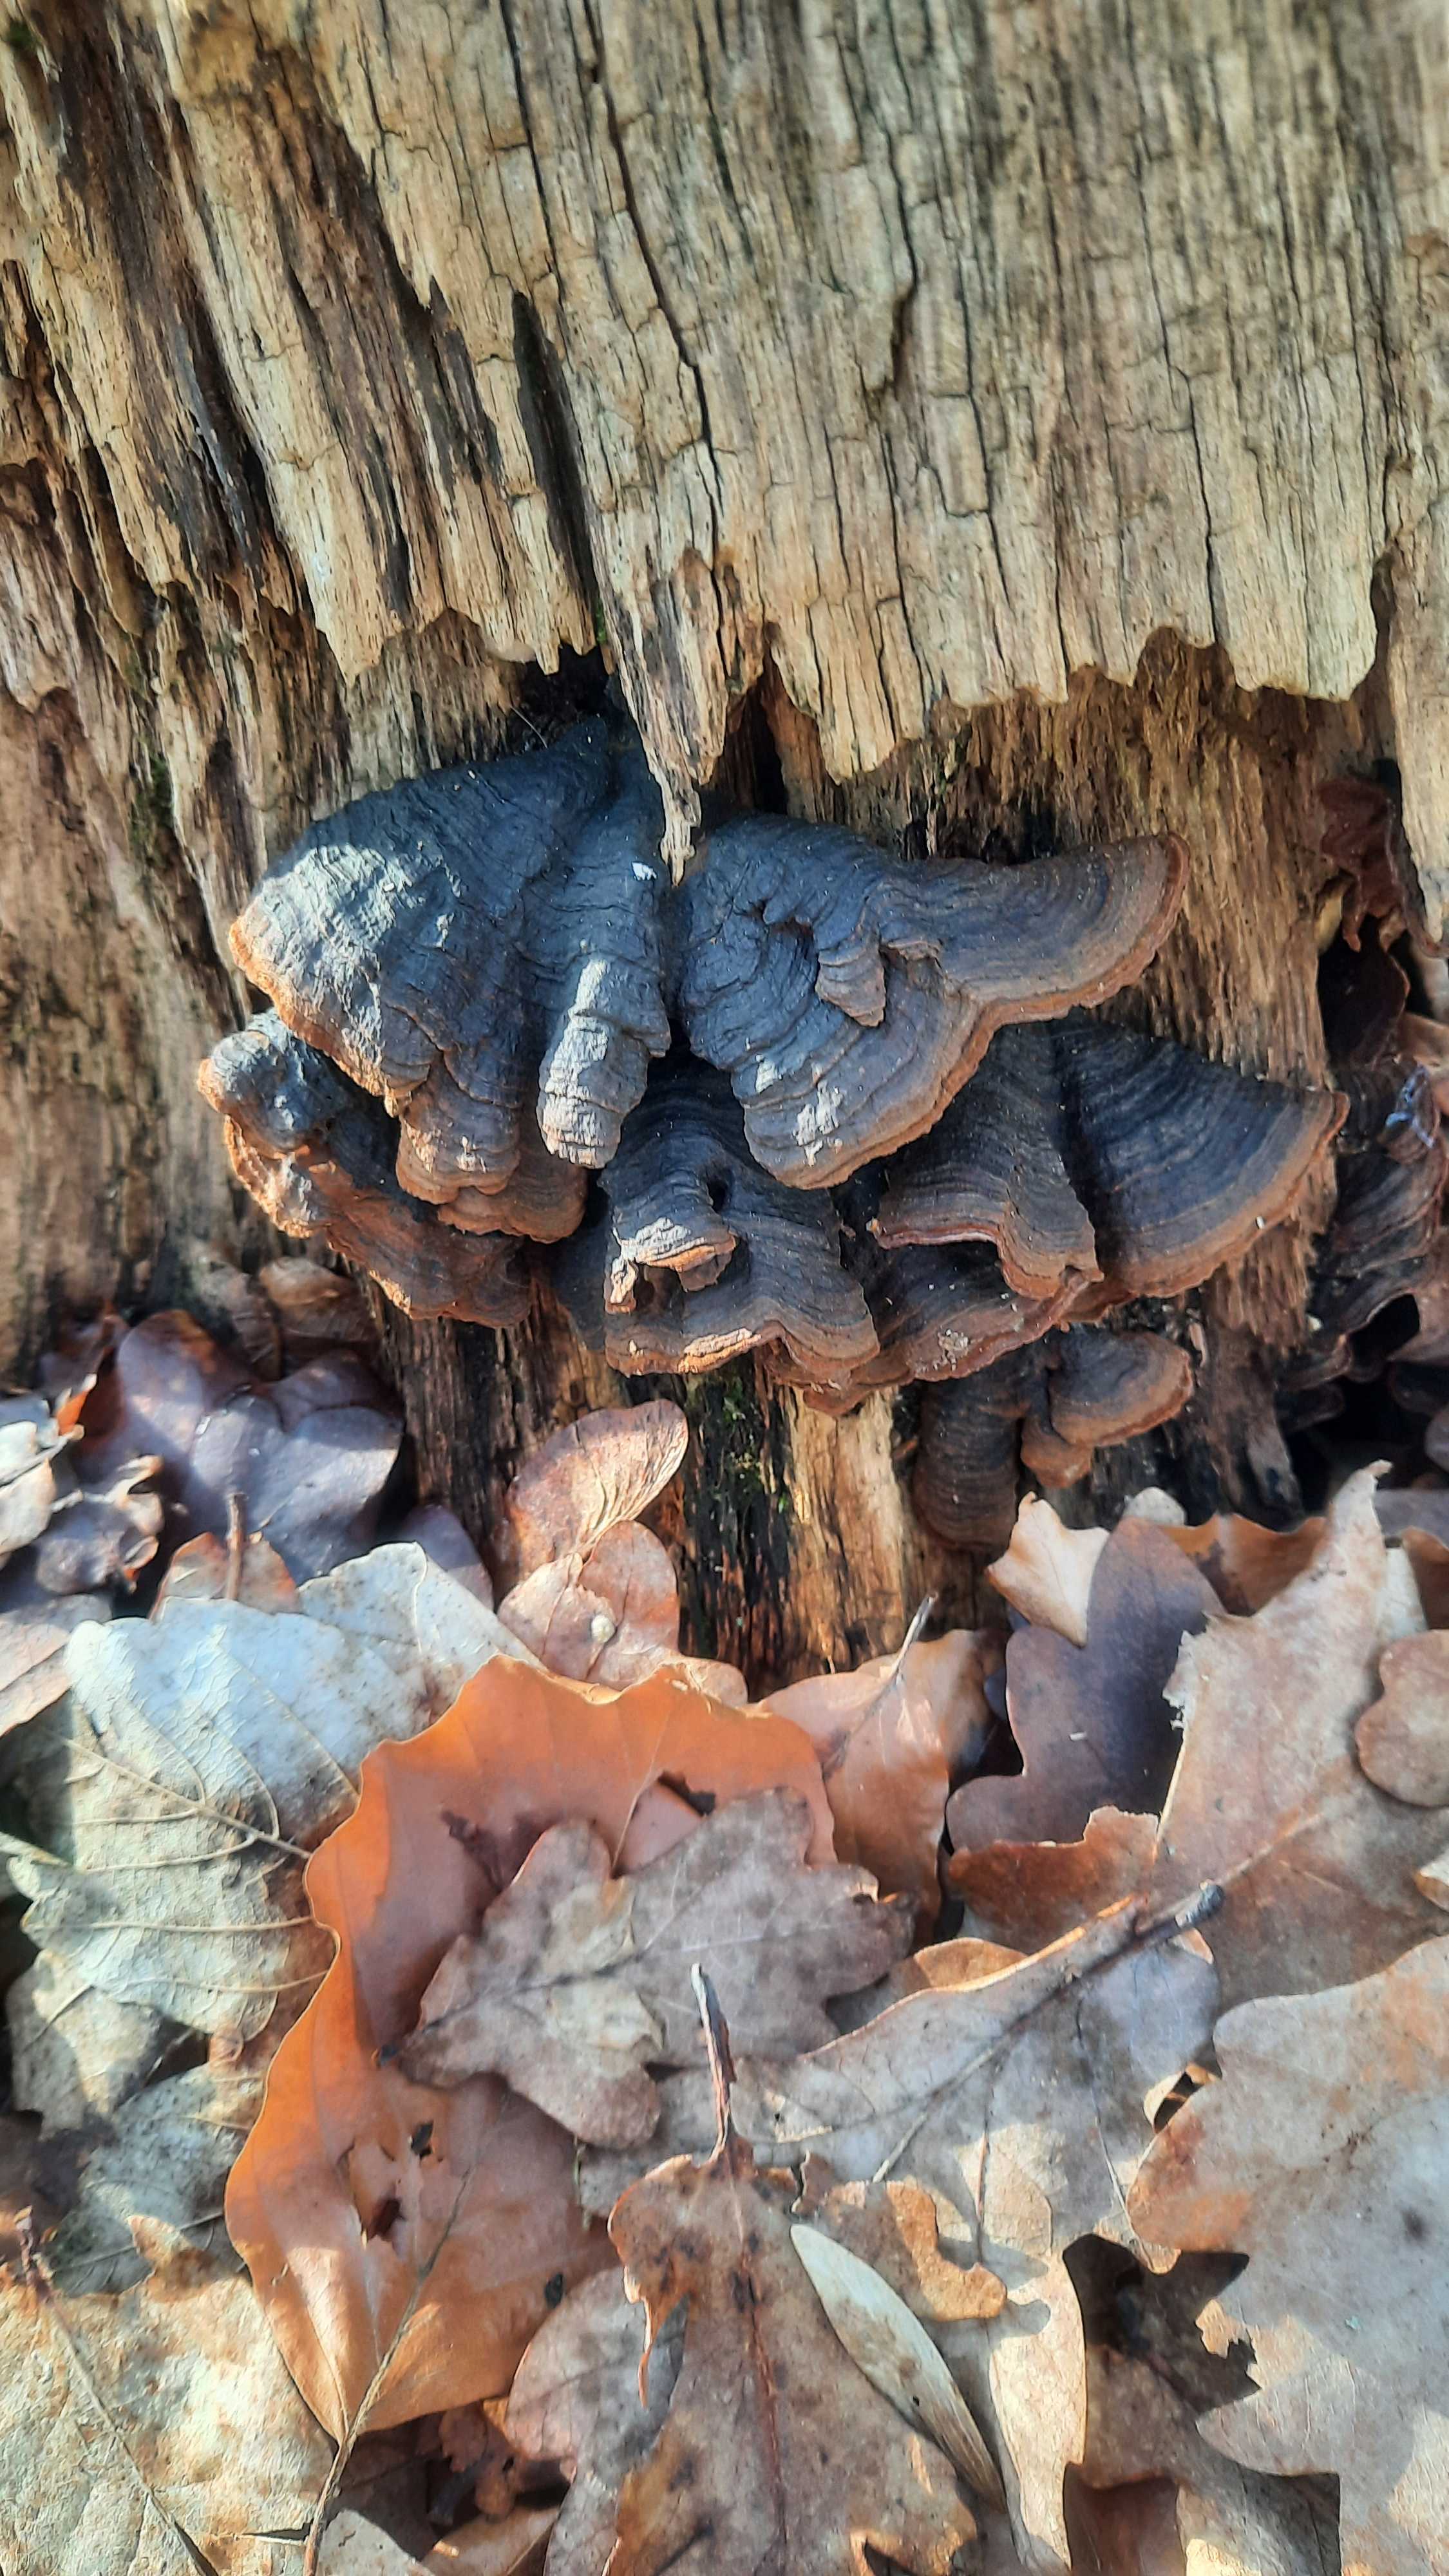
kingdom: Fungi
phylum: Basidiomycota
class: Agaricomycetes
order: Hymenochaetales
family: Hymenochaetaceae
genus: Hymenochaete
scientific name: Hymenochaete rubiginosa
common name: stiv ruslædersvamp
